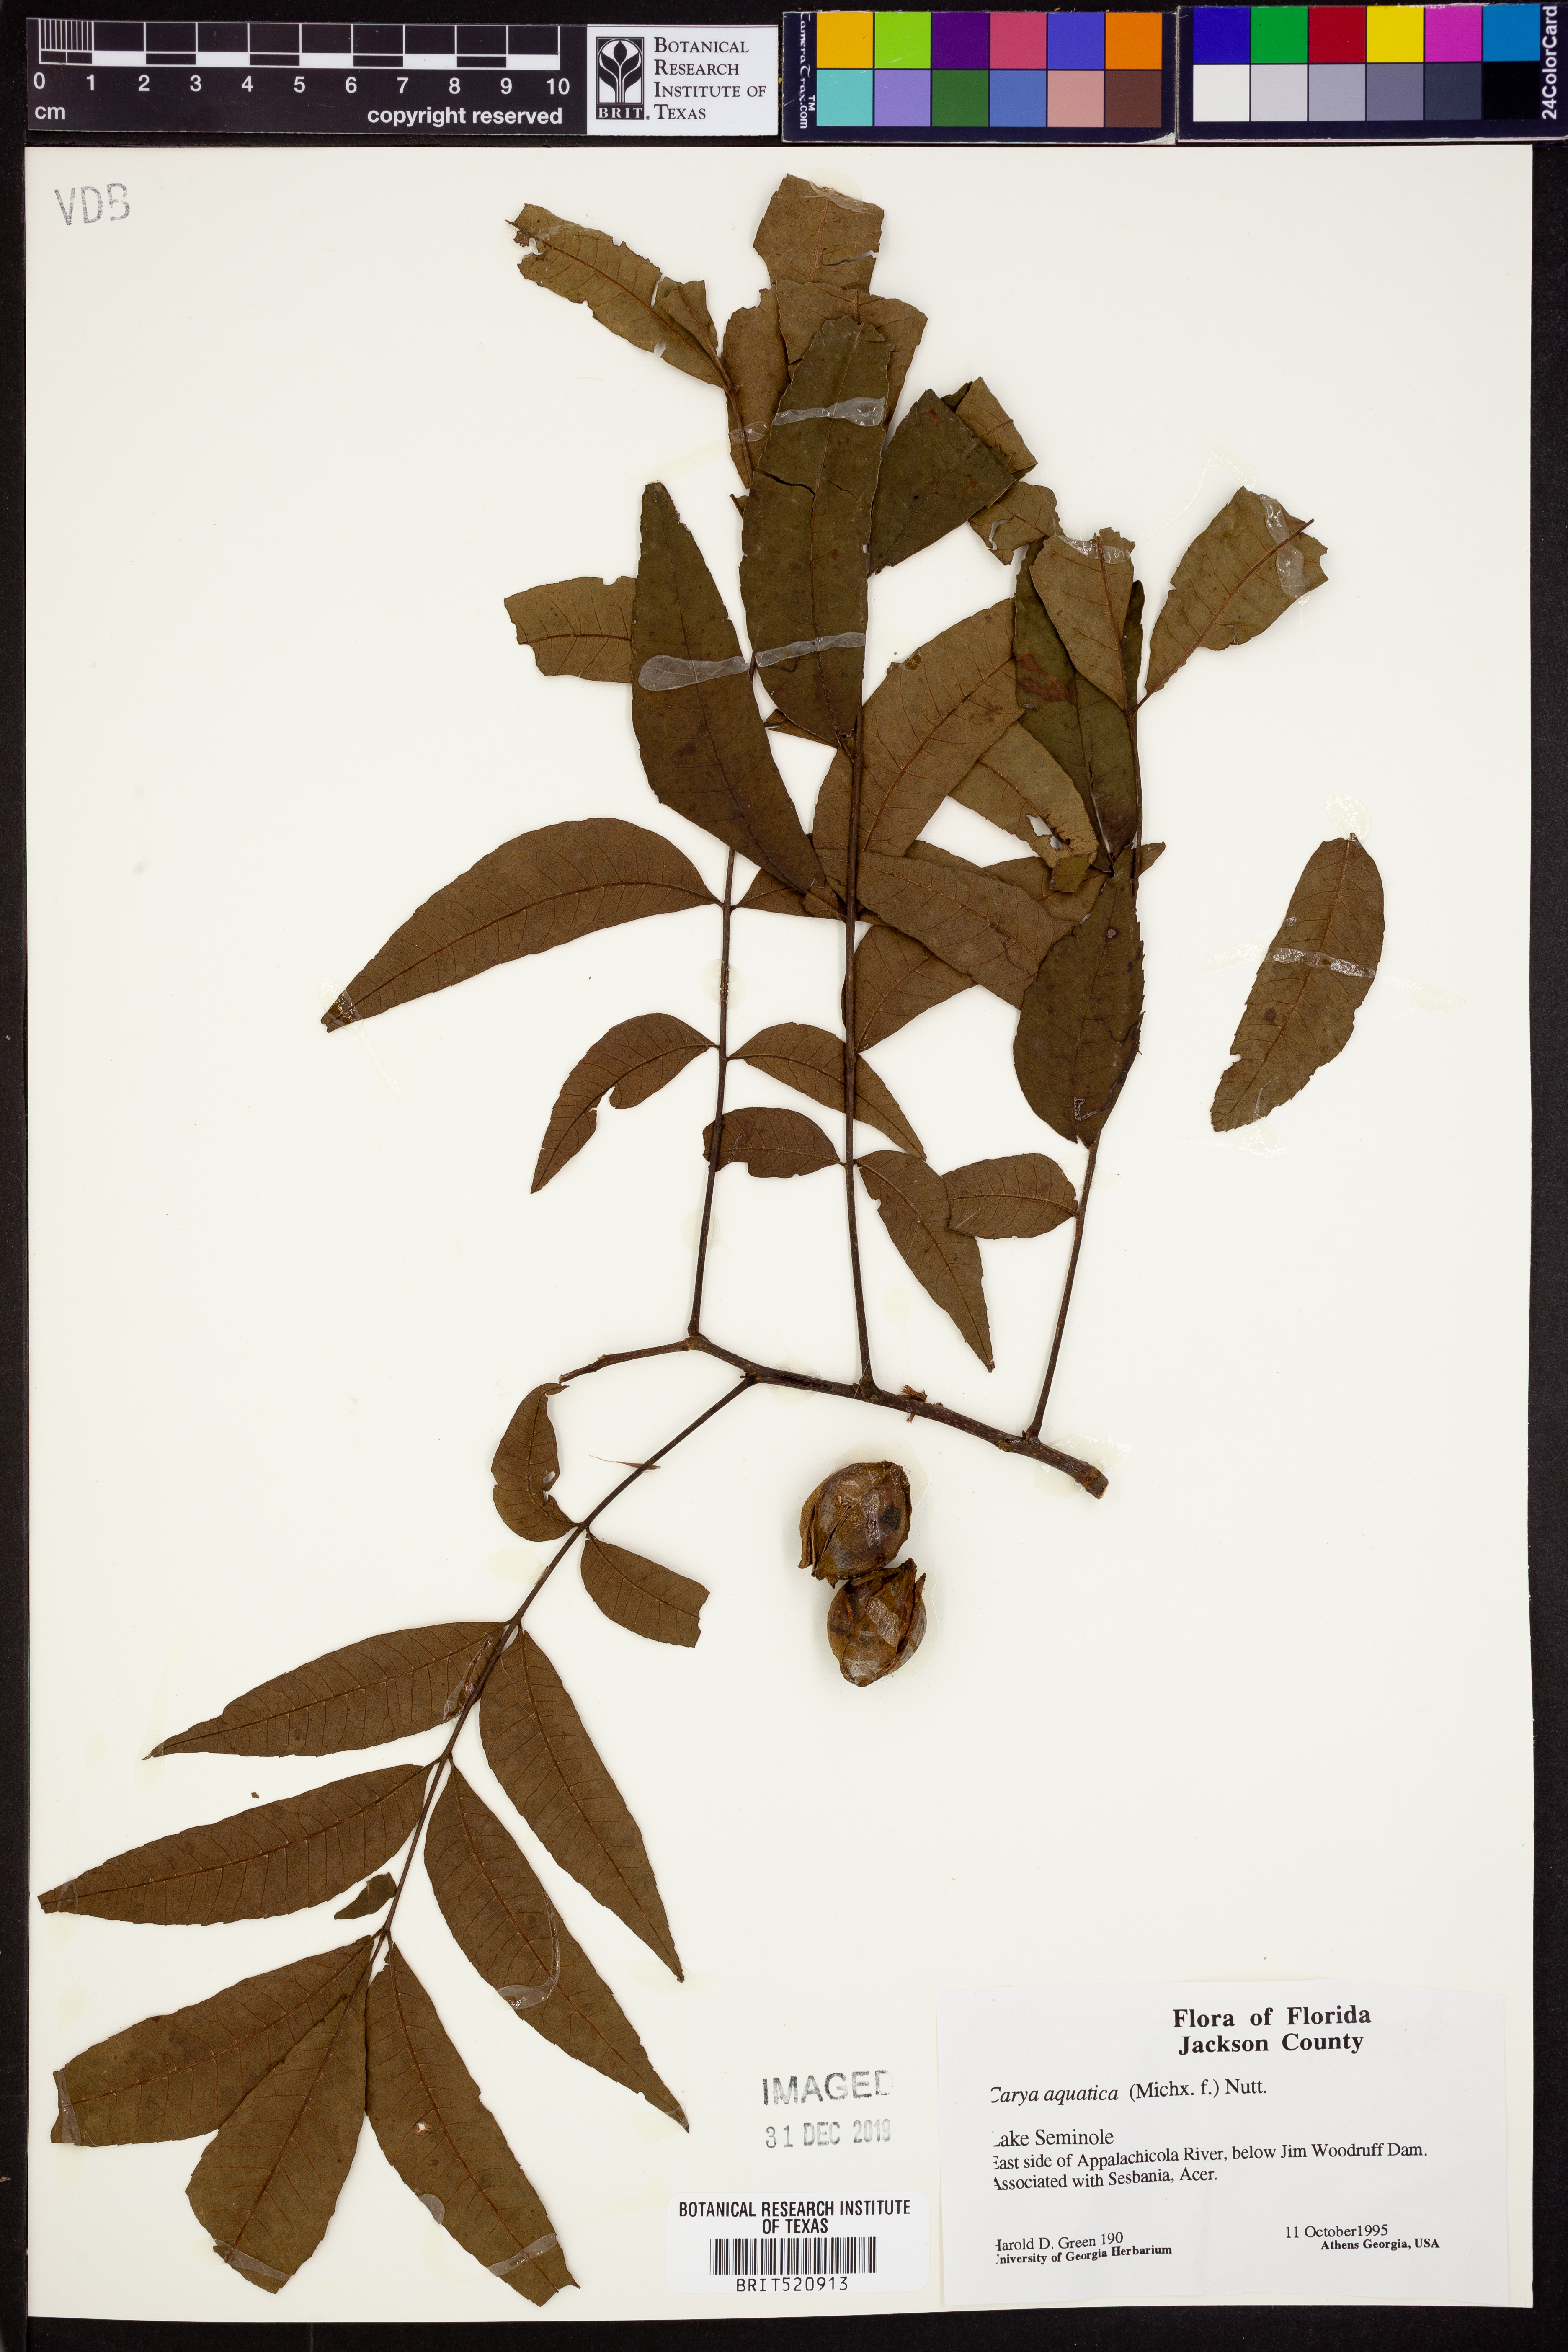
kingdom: Plantae
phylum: Tracheophyta
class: Magnoliopsida
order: Fagales
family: Juglandaceae
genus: Carya
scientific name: Carya aquatica
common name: Water hickory
